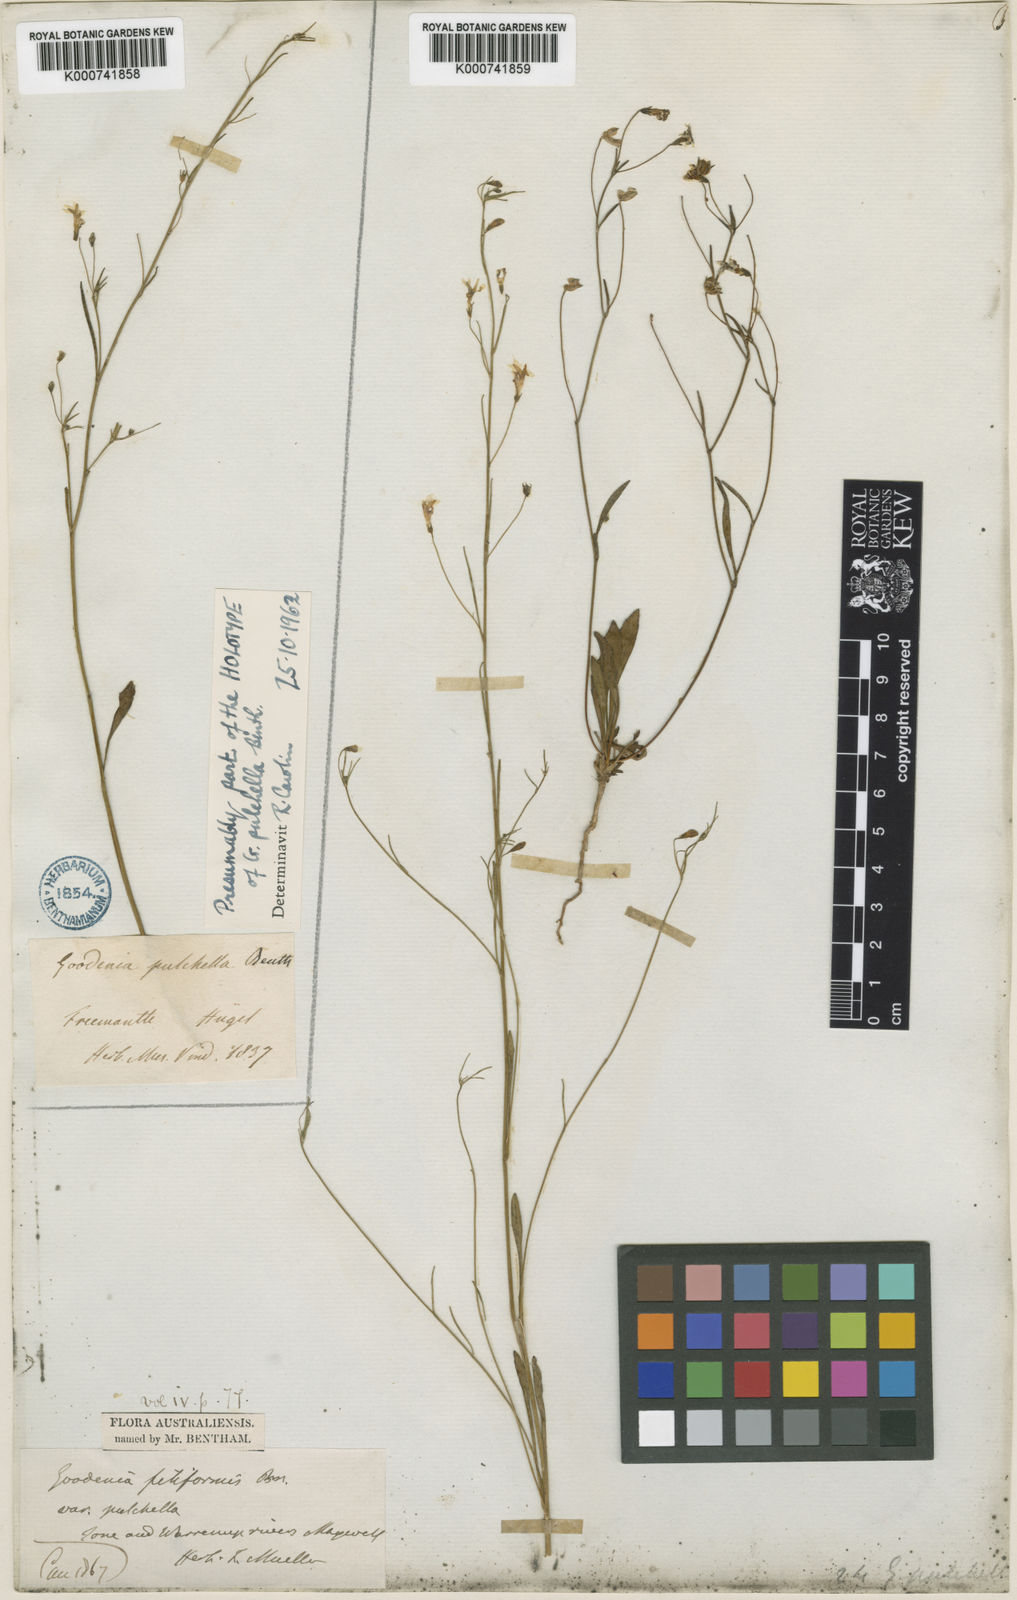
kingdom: Plantae
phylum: Tracheophyta
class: Magnoliopsida
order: Asterales
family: Goodeniaceae
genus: Goodenia
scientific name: Goodenia pulchella
